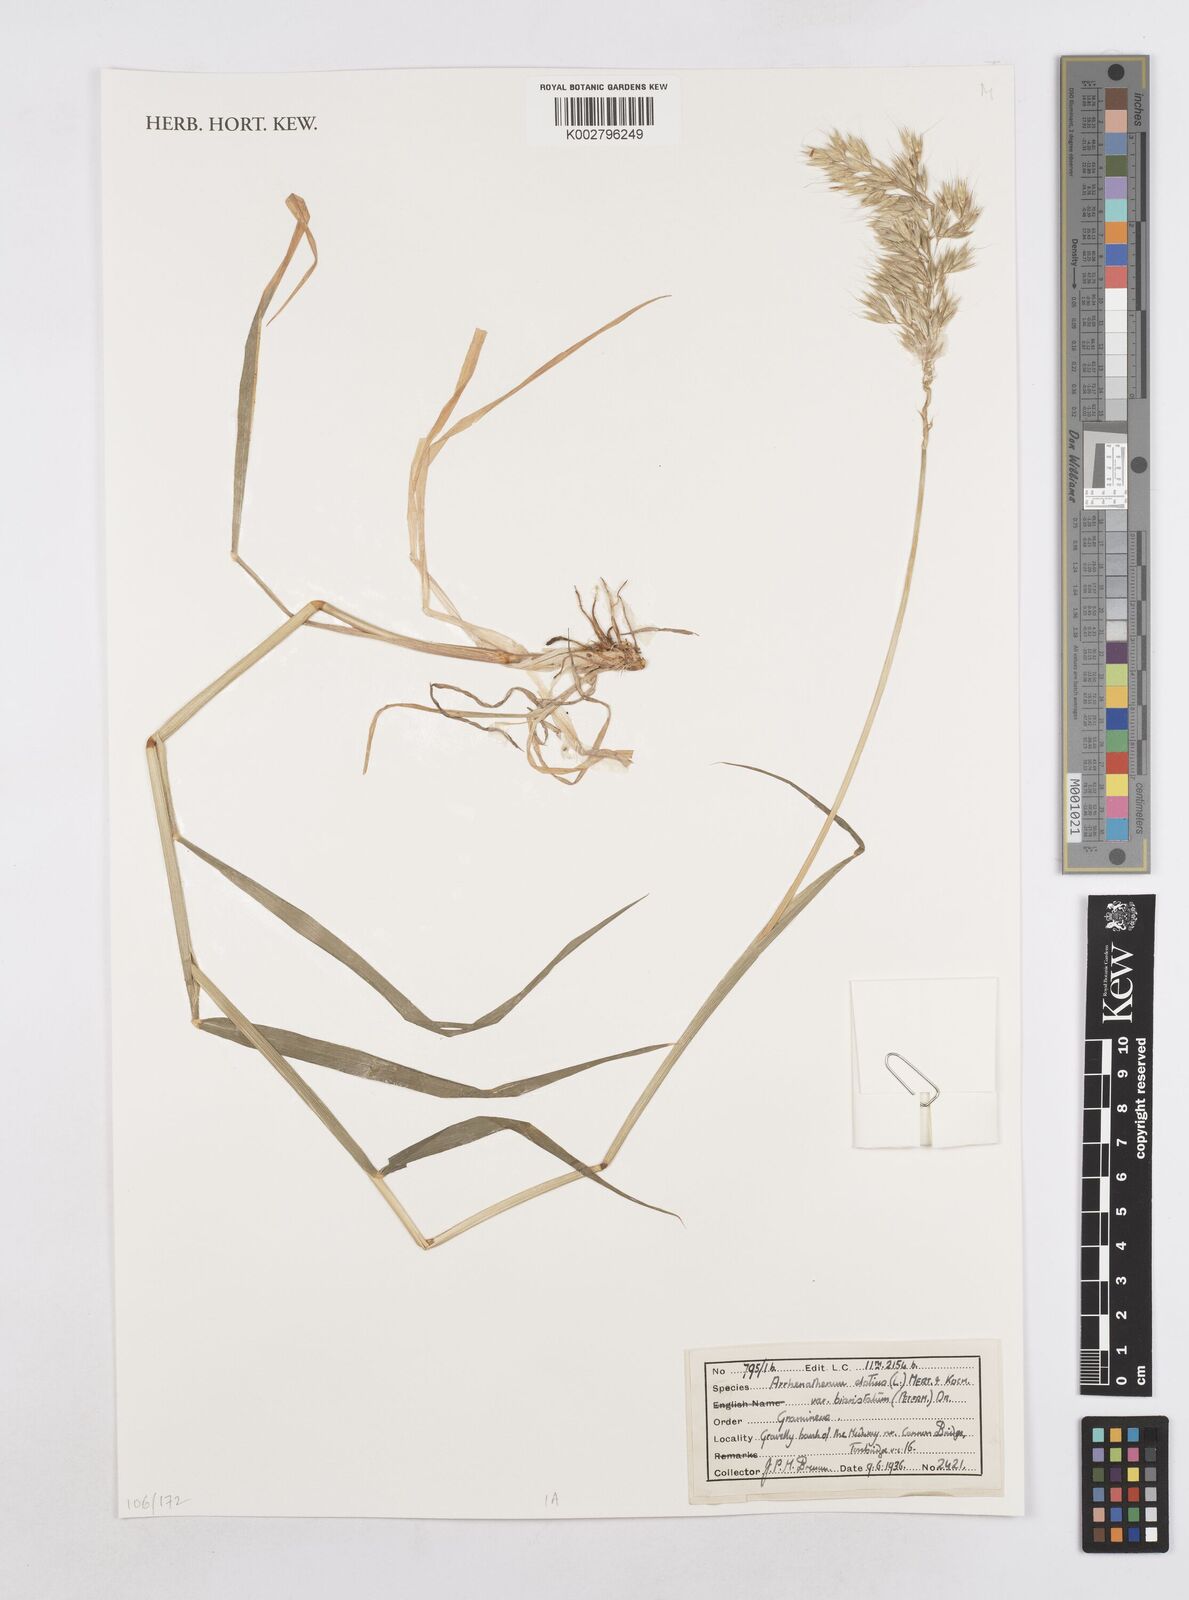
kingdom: Plantae
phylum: Tracheophyta
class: Liliopsida
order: Poales
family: Poaceae
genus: Arrhenatherum
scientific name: Arrhenatherum elatius
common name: Tall oatgrass
